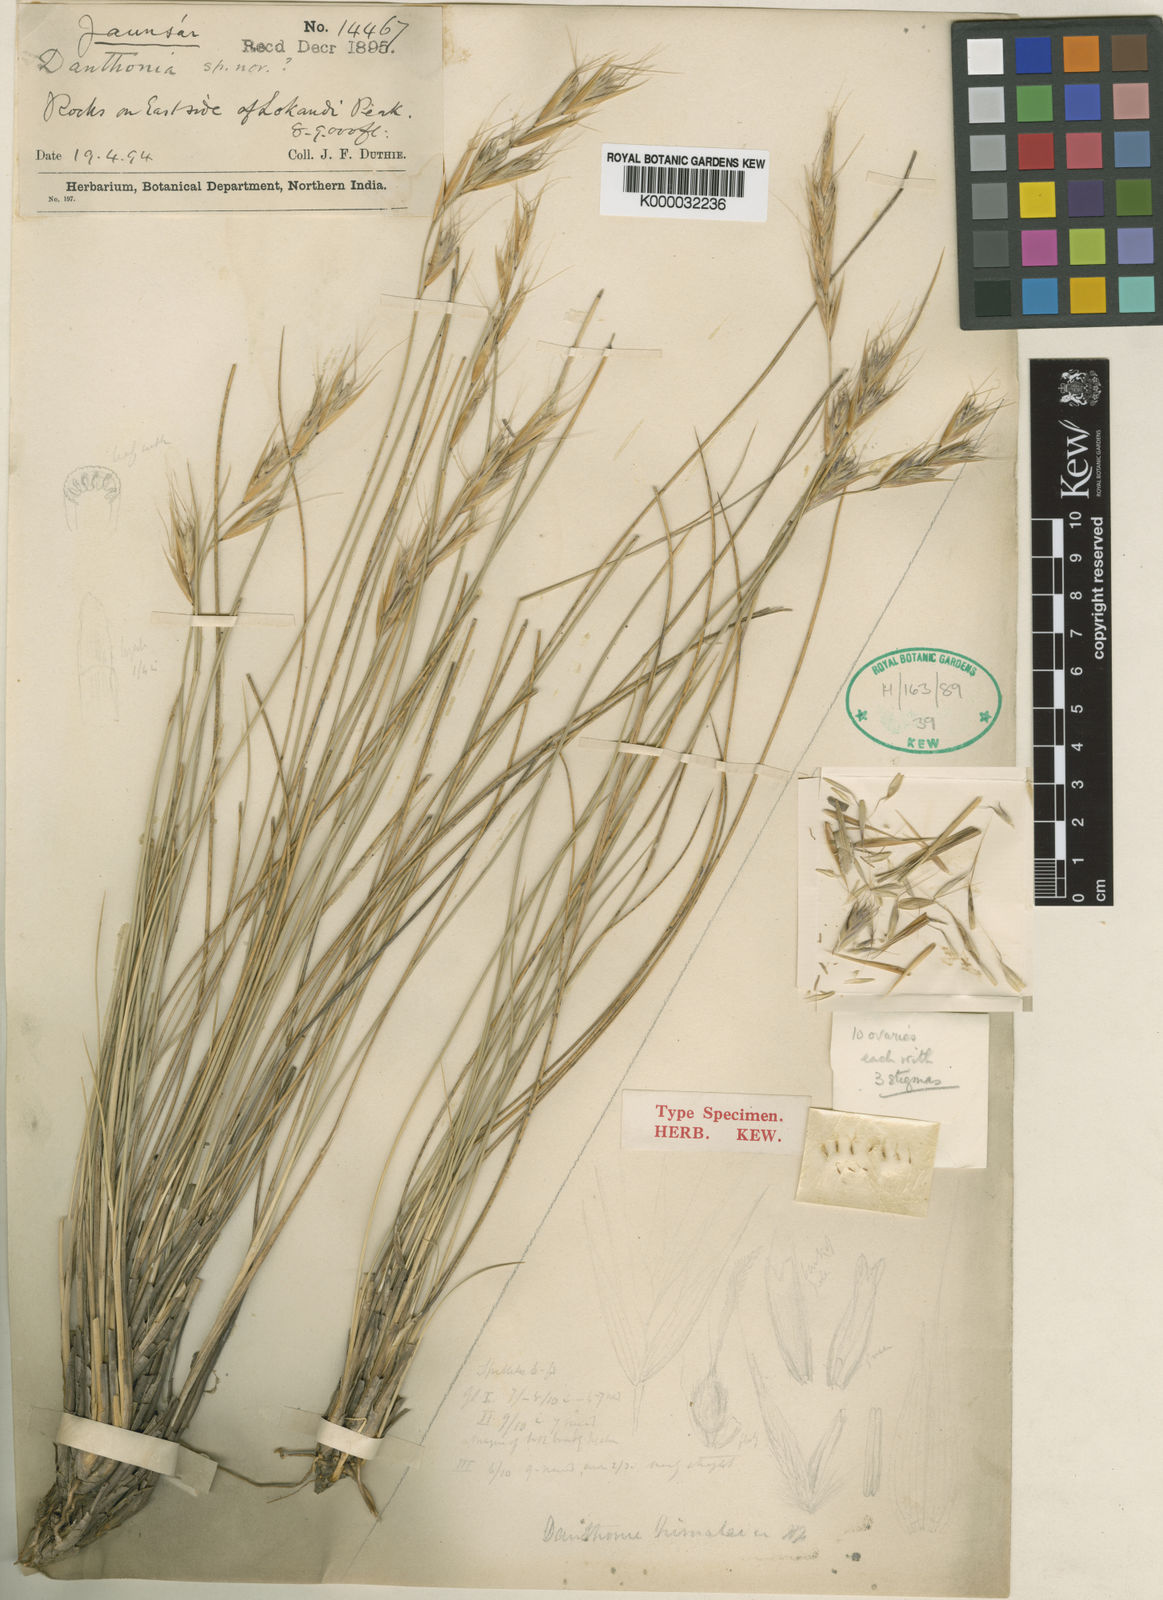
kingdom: Plantae
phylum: Tracheophyta
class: Liliopsida
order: Poales
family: Poaceae
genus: Pseudodanthonia
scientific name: Pseudodanthonia himalaica
